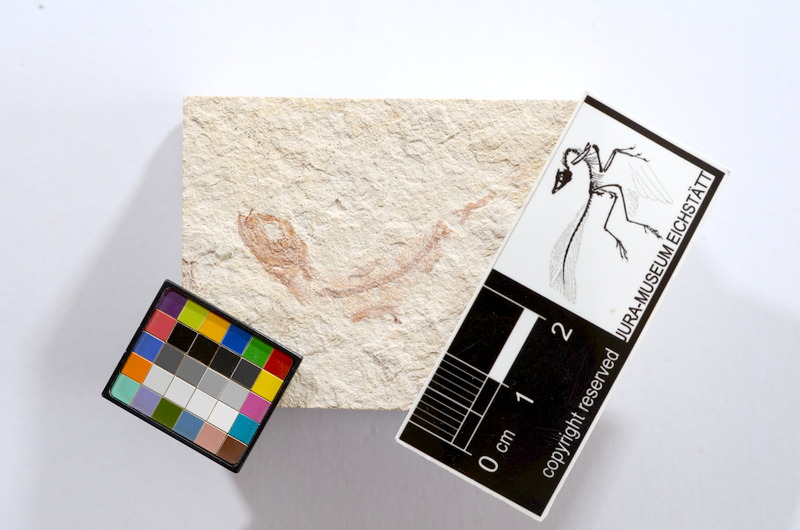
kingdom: Animalia
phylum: Chordata
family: Ascalaboidae
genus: Tharsis
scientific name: Tharsis dubius
